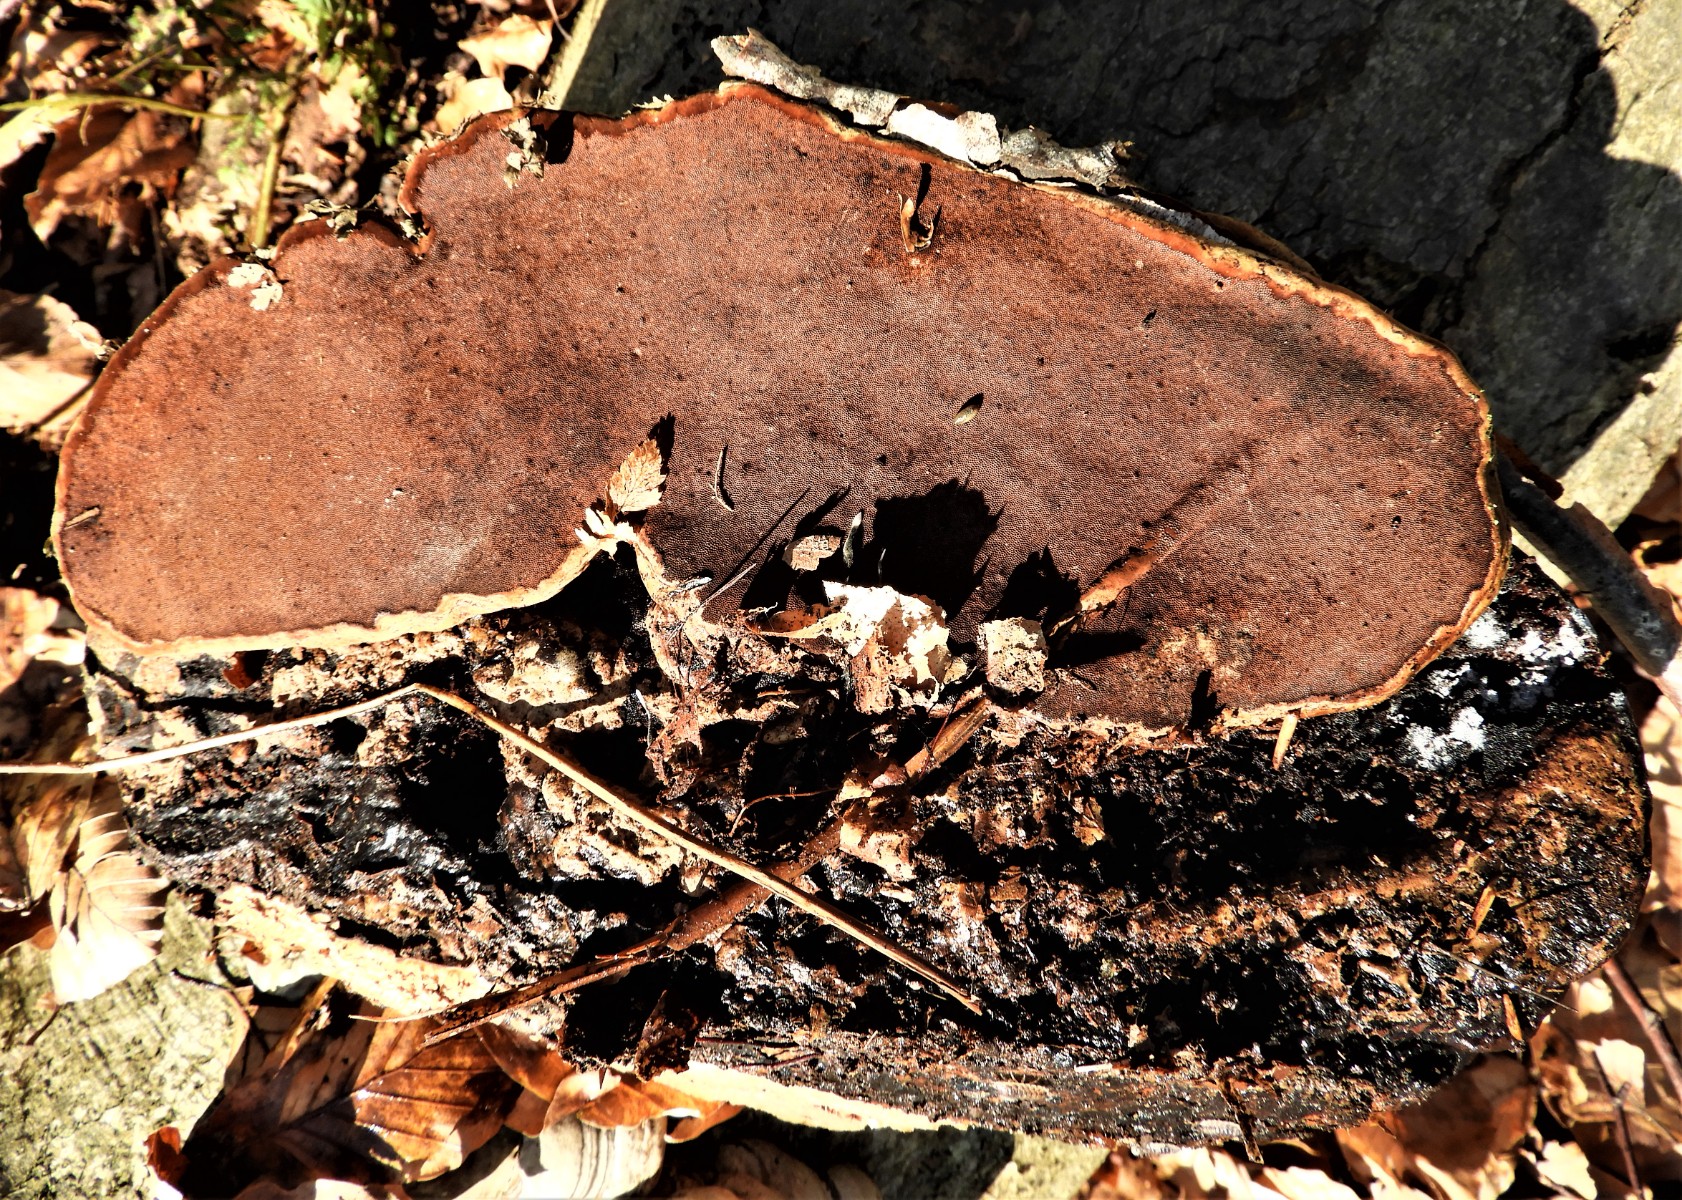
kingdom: Fungi
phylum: Basidiomycota
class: Agaricomycetes
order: Polyporales
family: Polyporaceae
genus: Fomes
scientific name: Fomes fomentarius
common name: tøndersvamp
